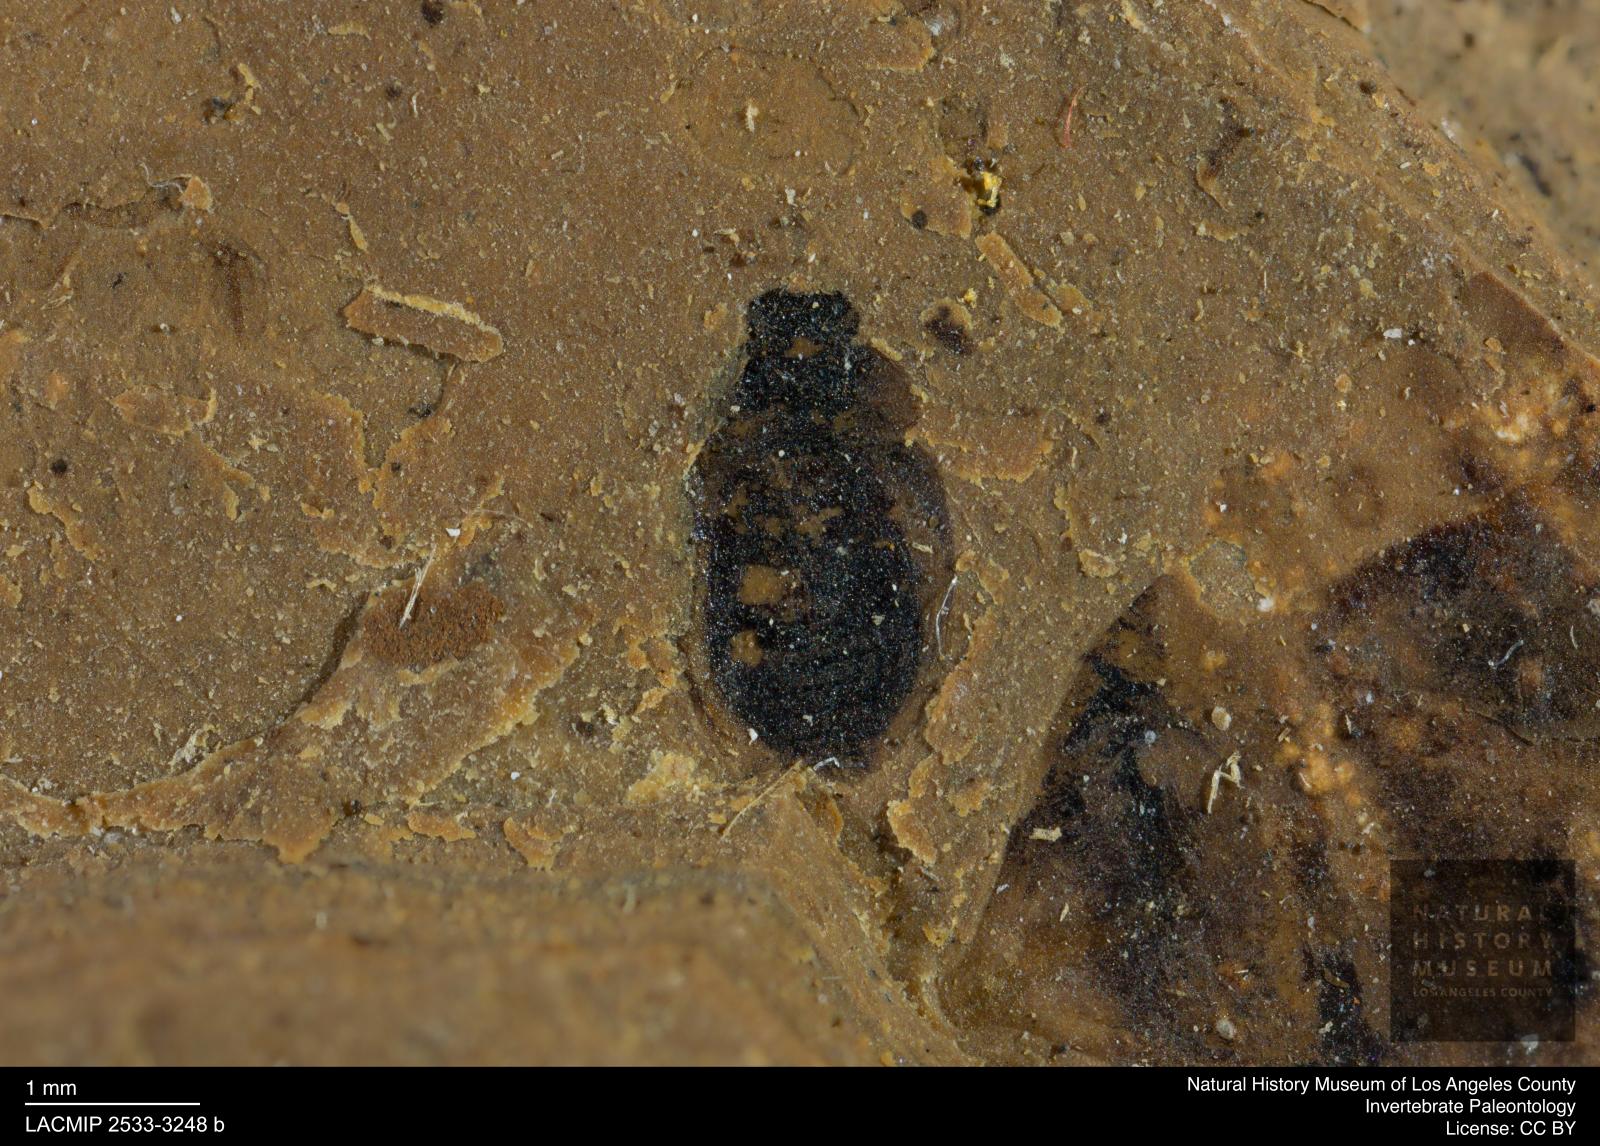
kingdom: Animalia
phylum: Arthropoda
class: Insecta
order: Coleoptera
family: Hydrophilidae
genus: Paracymus
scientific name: Paracymus excitatus
